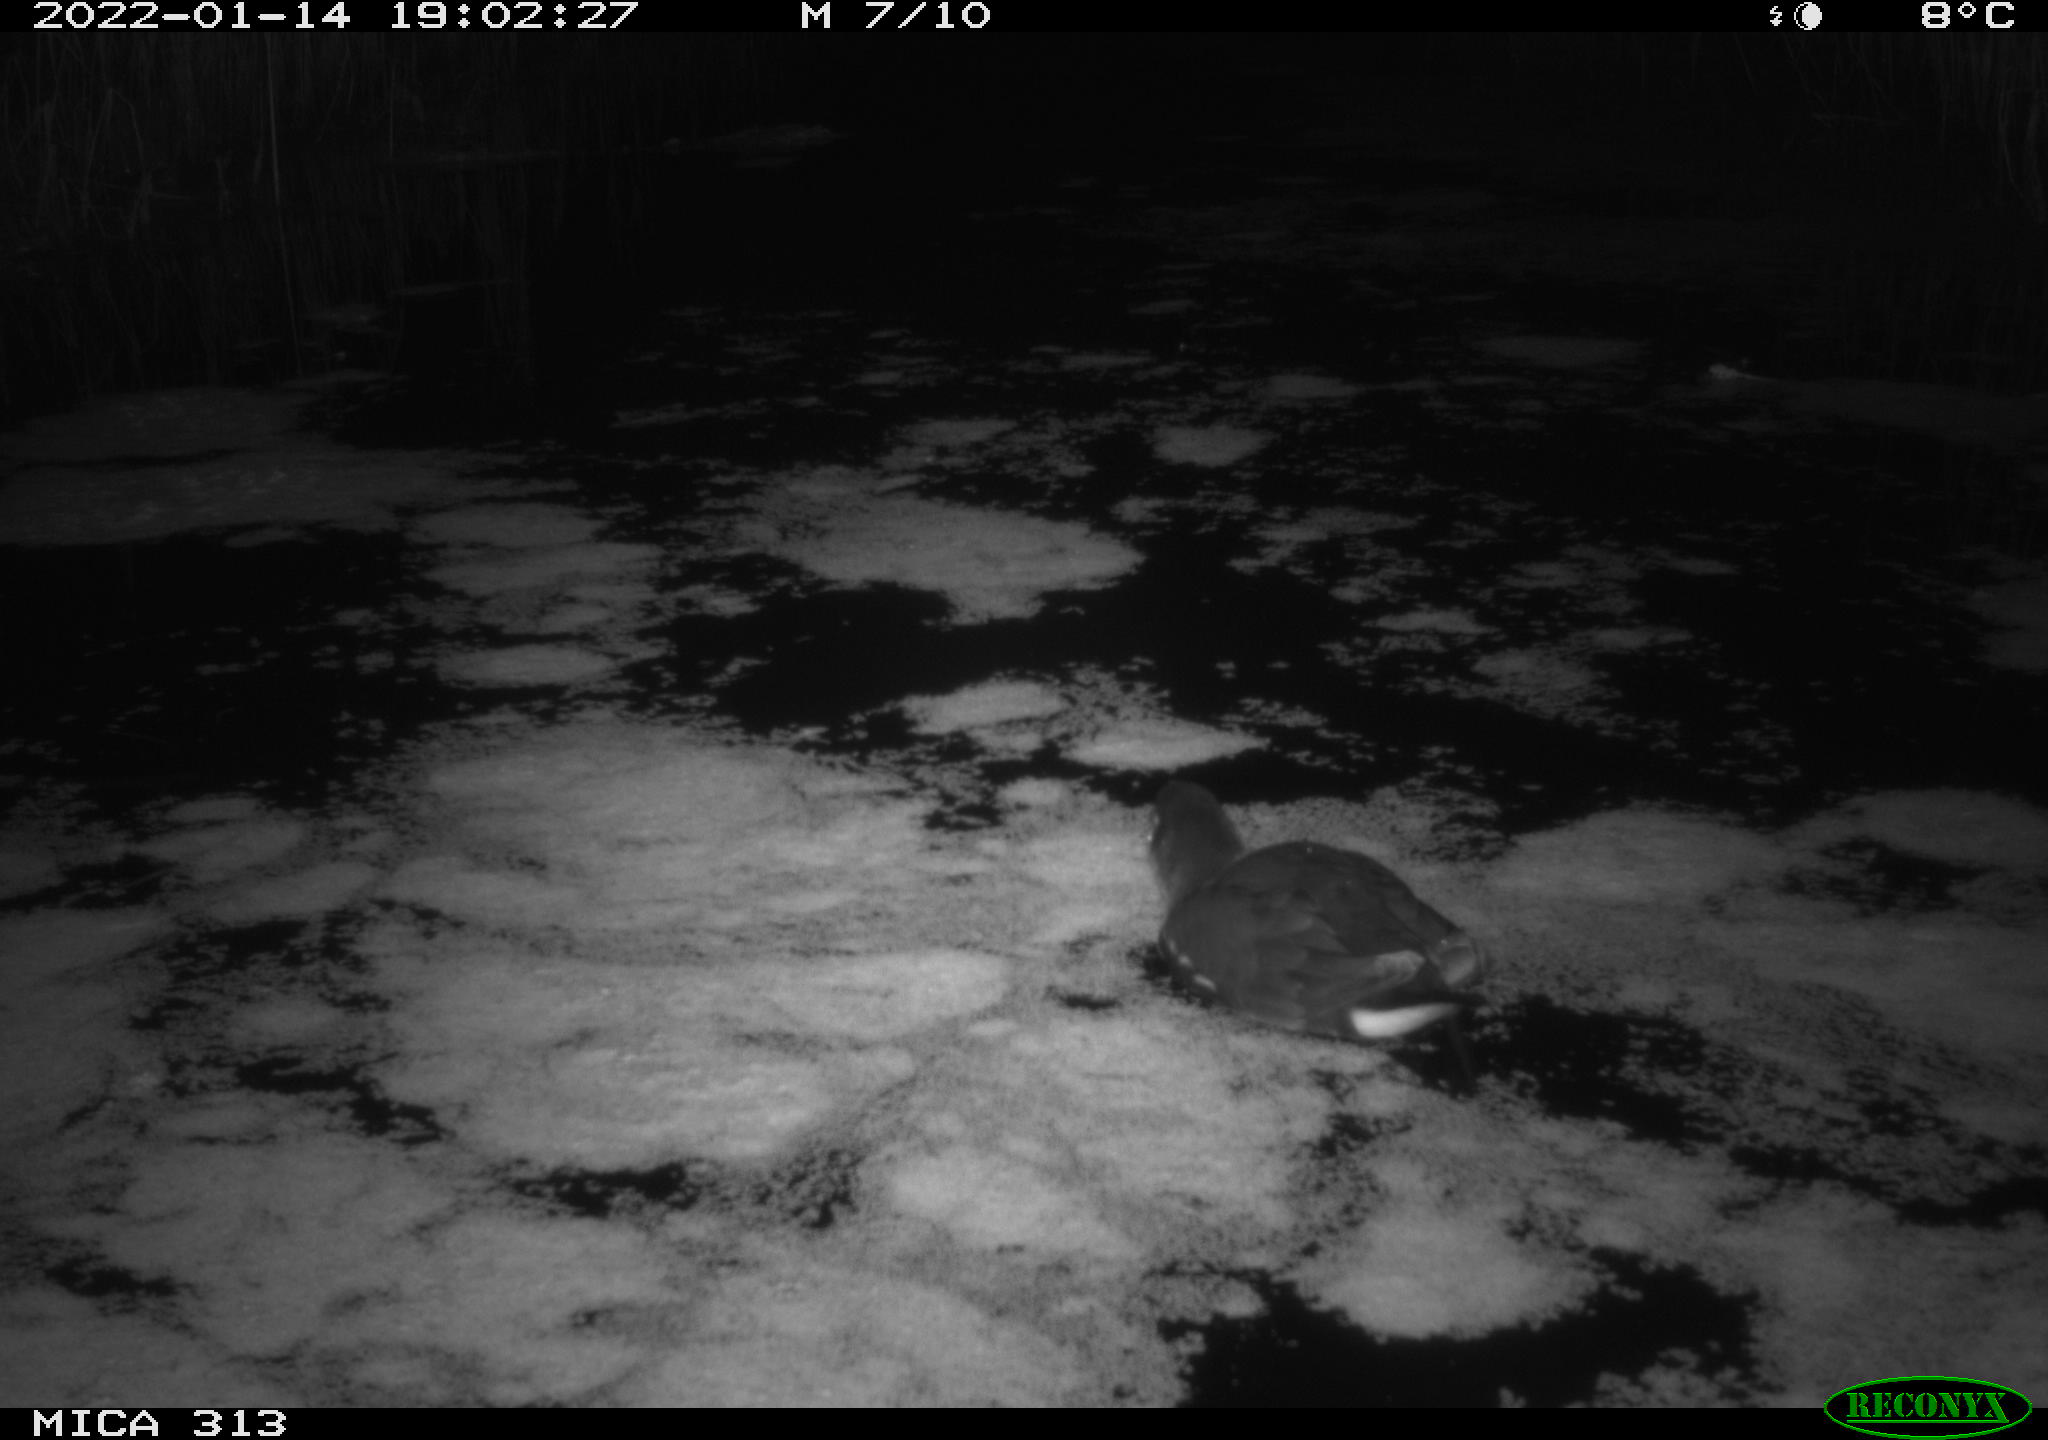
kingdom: Animalia
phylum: Chordata
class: Aves
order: Gruiformes
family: Rallidae
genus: Fulica
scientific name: Fulica atra
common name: Eurasian coot
